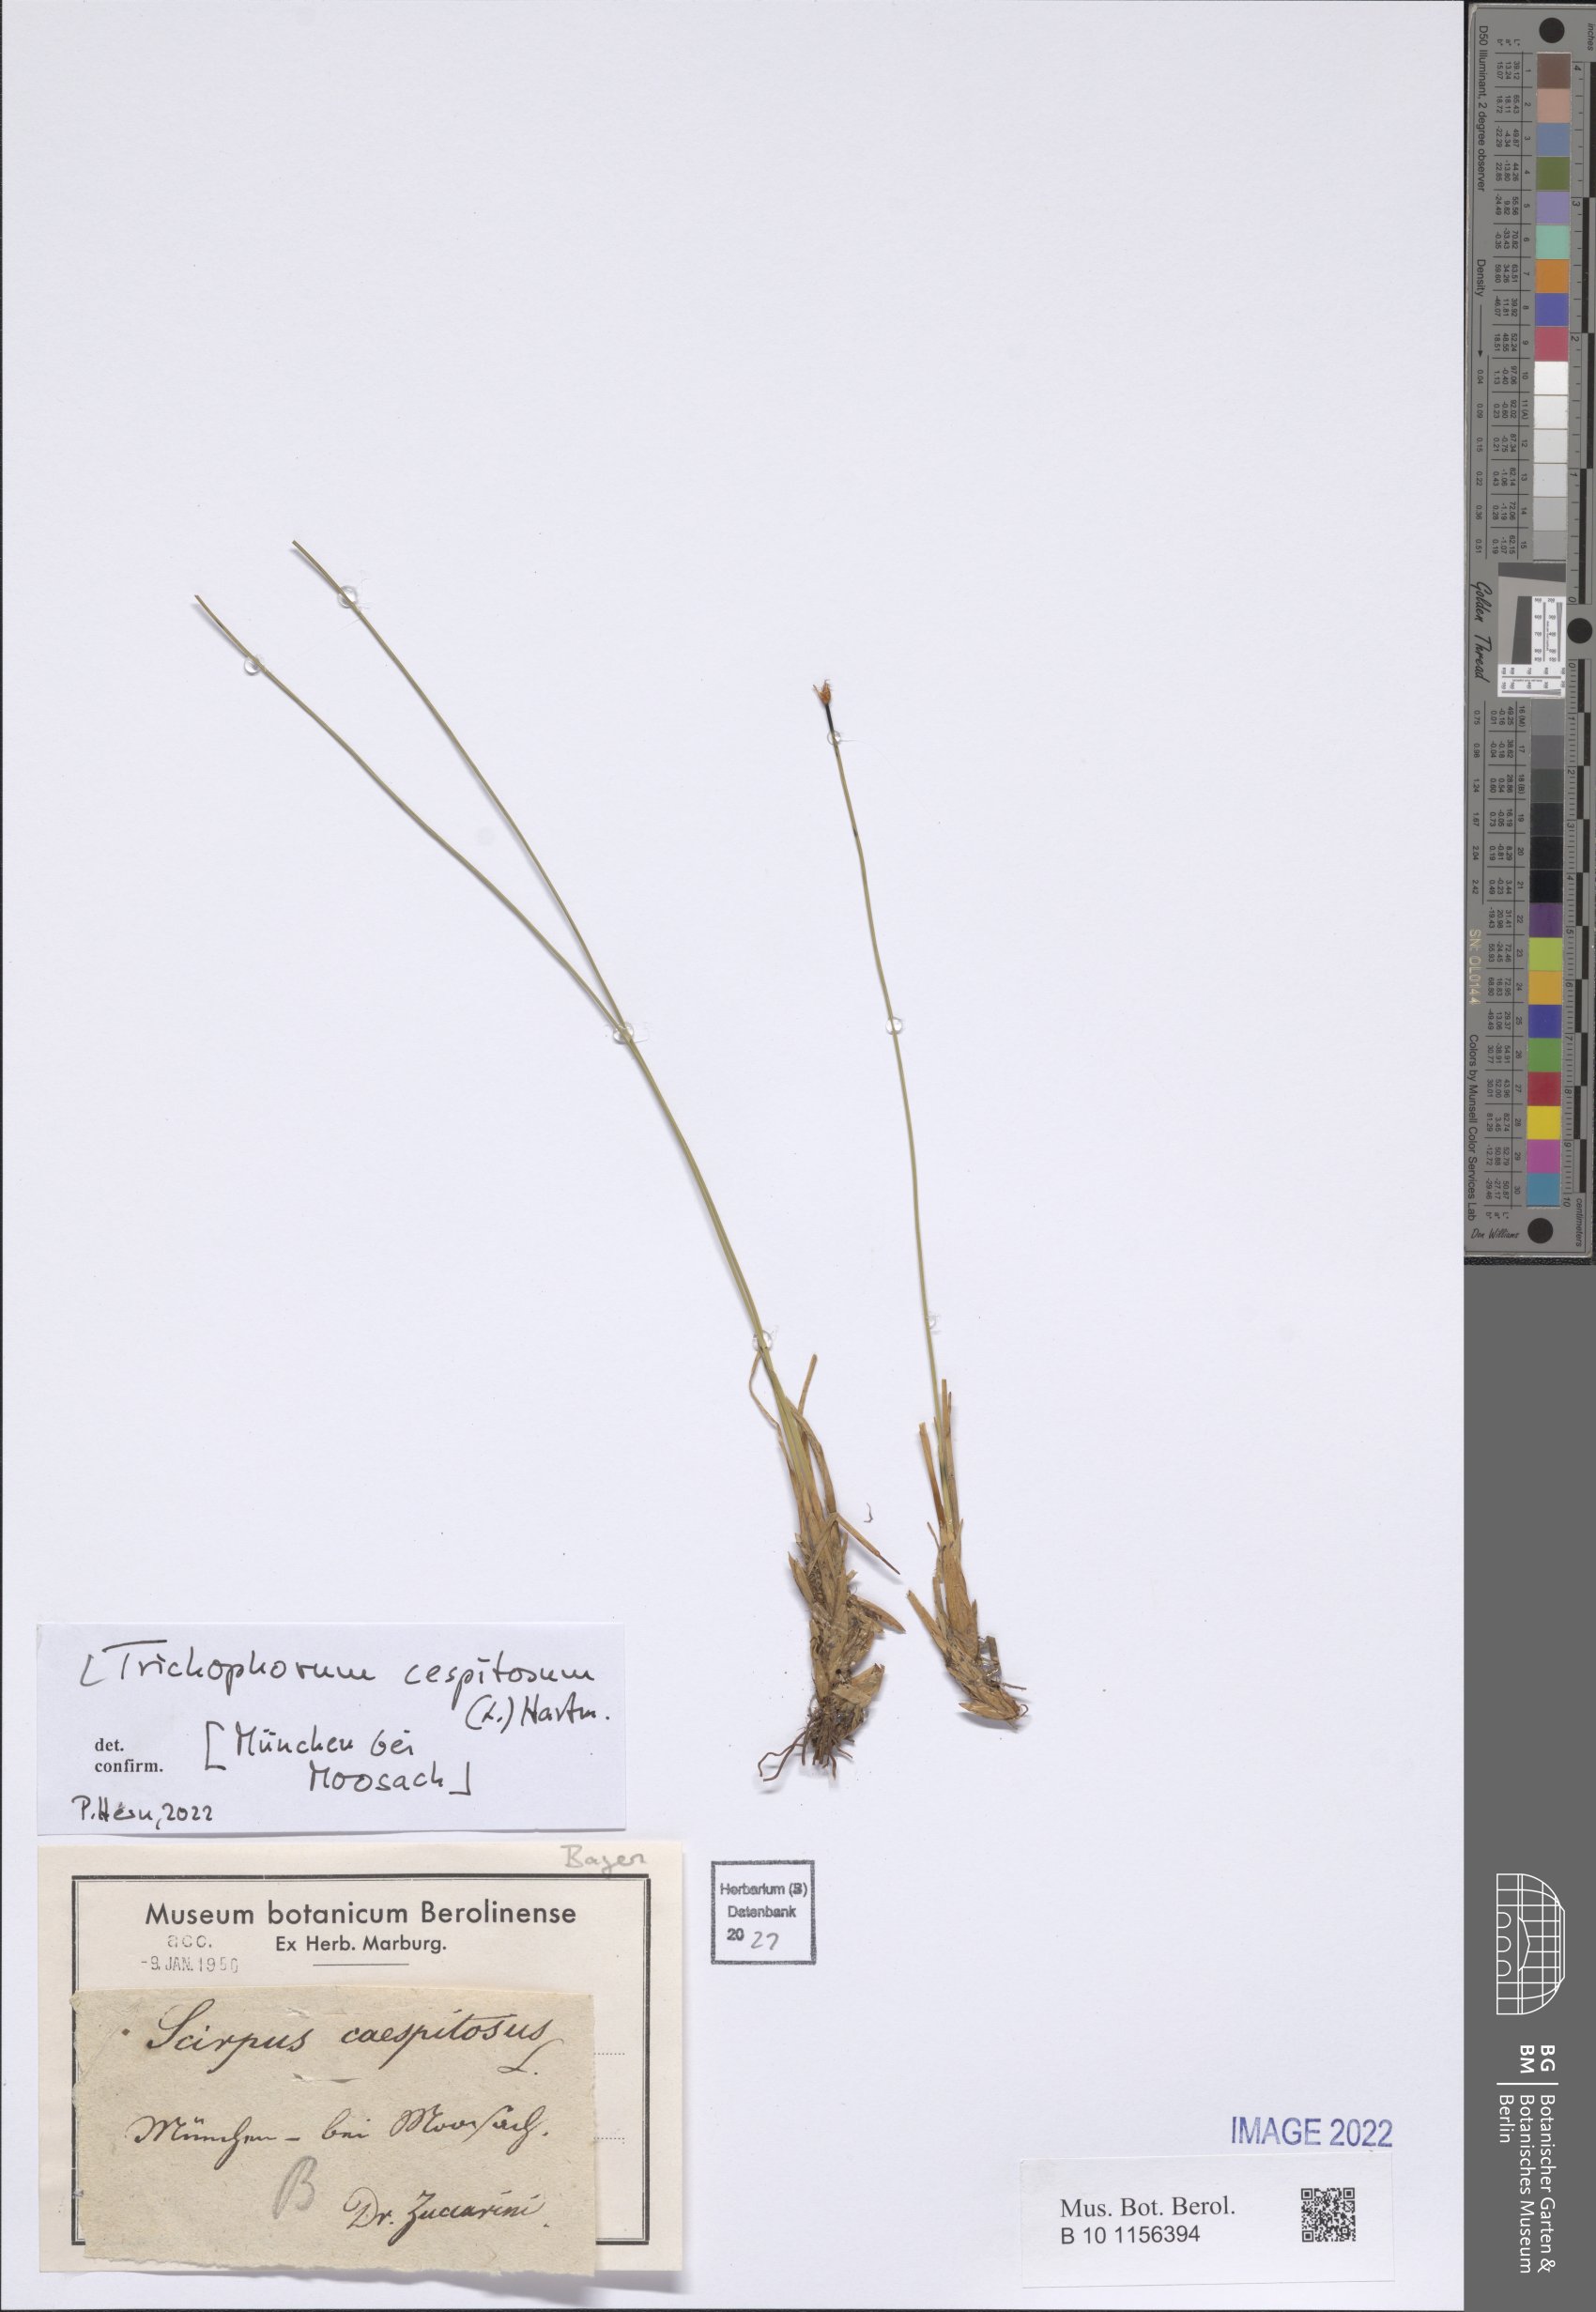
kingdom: Plantae
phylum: Tracheophyta
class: Liliopsida
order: Poales
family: Cyperaceae
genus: Trichophorum
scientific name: Trichophorum cespitosum
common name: Cespitose bulrush
